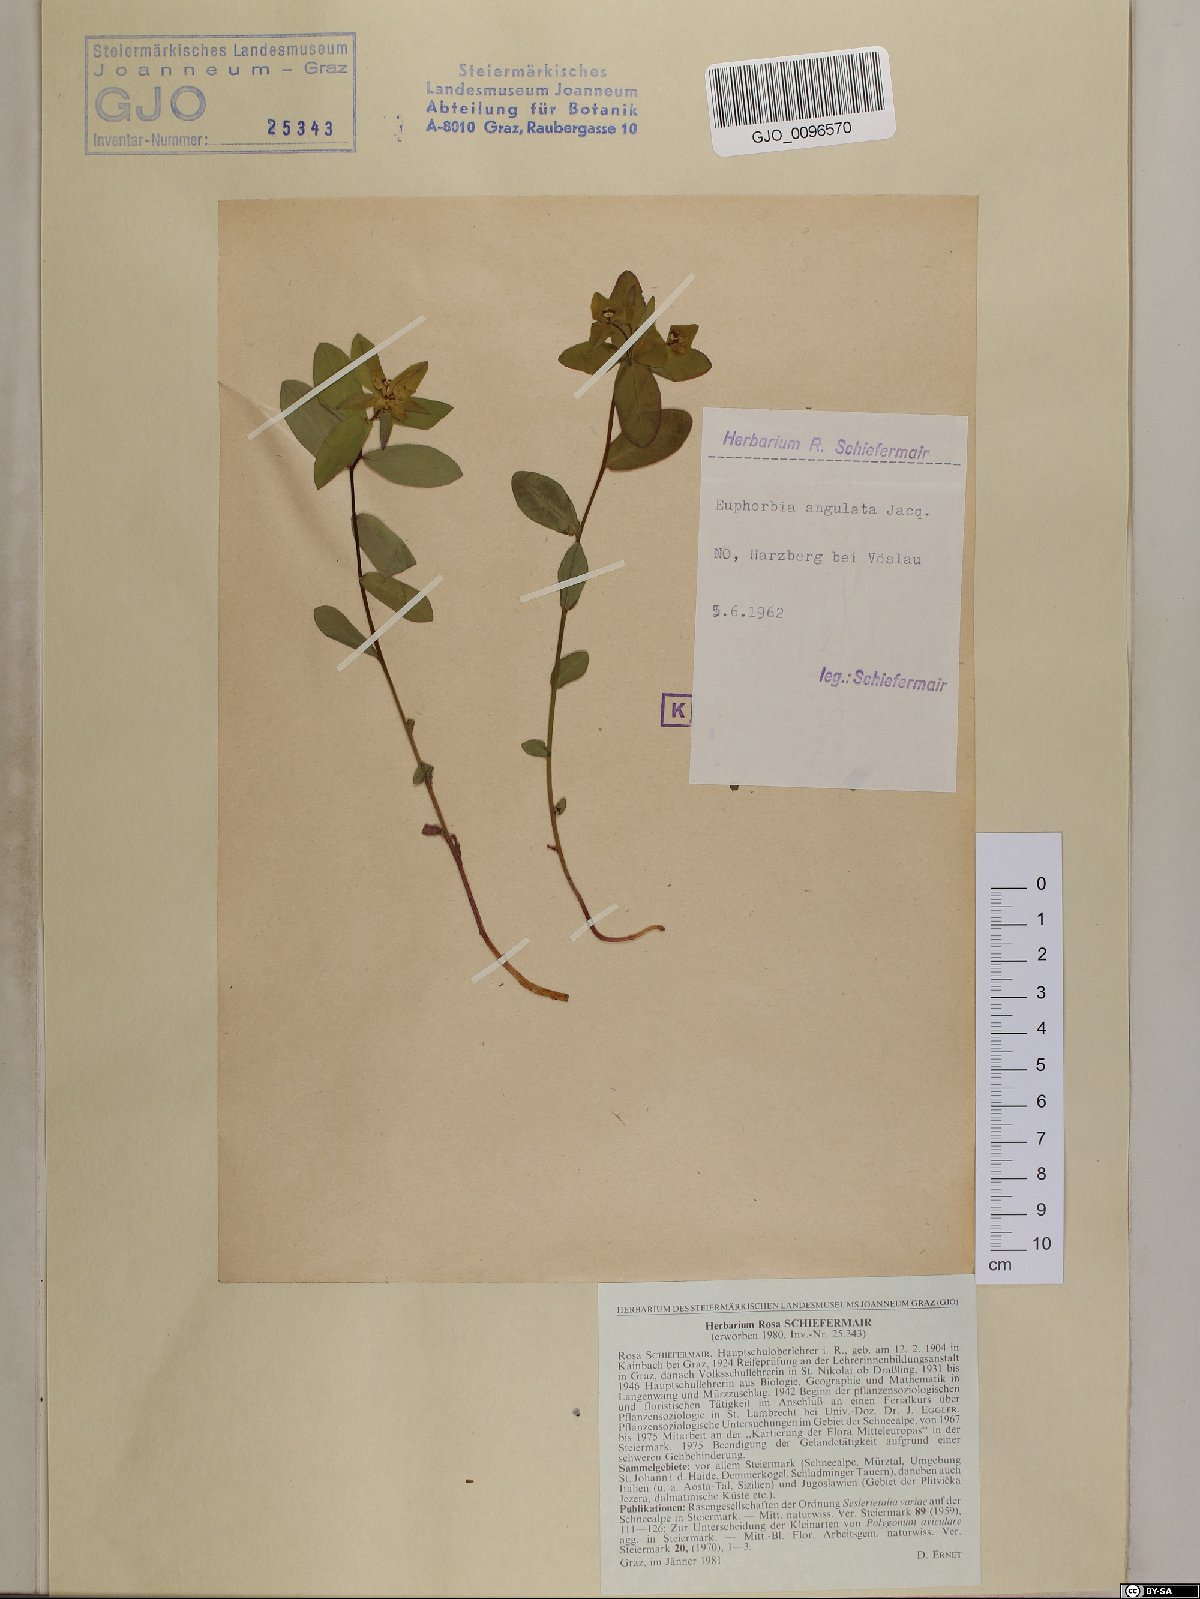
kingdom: Plantae
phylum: Tracheophyta
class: Magnoliopsida
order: Malpighiales
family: Euphorbiaceae
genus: Euphorbia
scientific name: Euphorbia angulata
